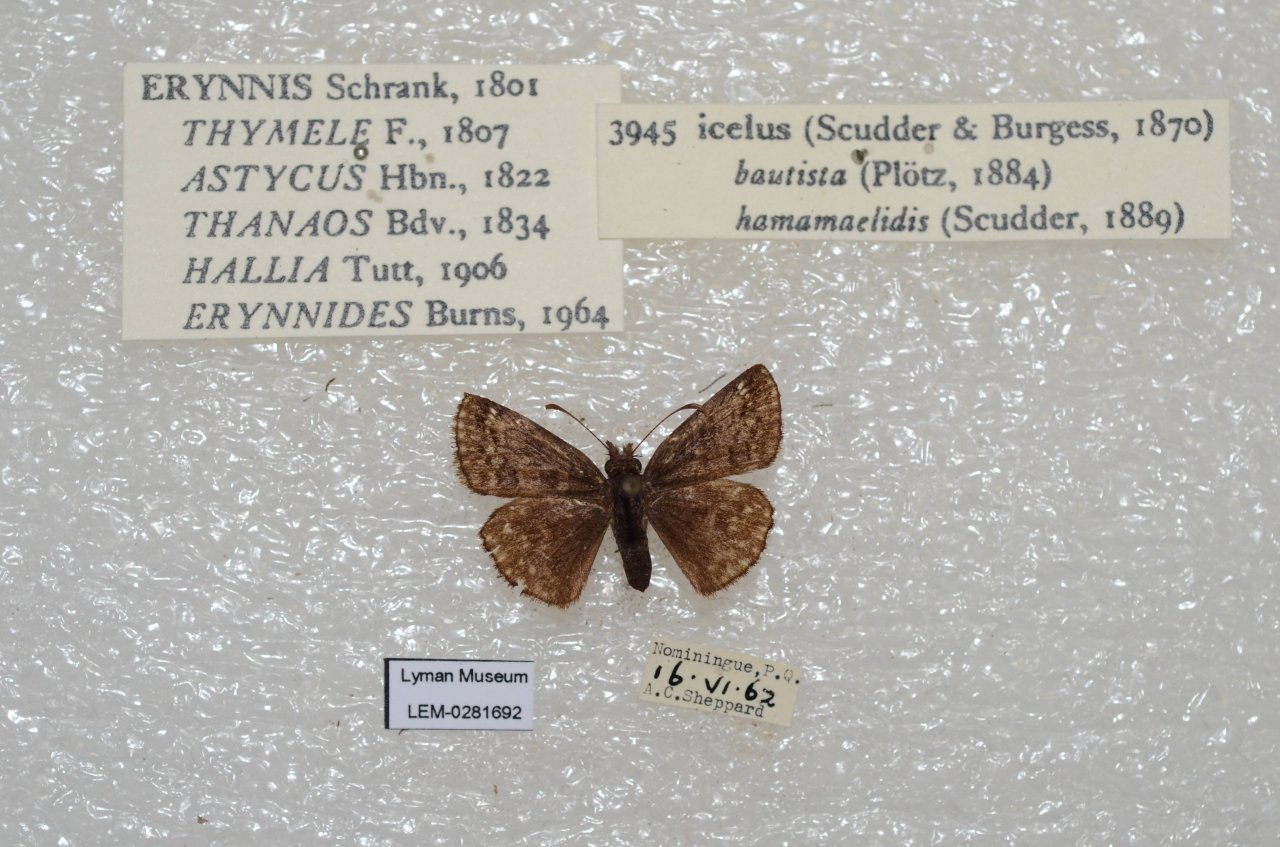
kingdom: Animalia
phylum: Arthropoda
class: Insecta
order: Lepidoptera
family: Hesperiidae
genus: Erynnis
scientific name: Erynnis icelus
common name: Dreamy Duskywing
